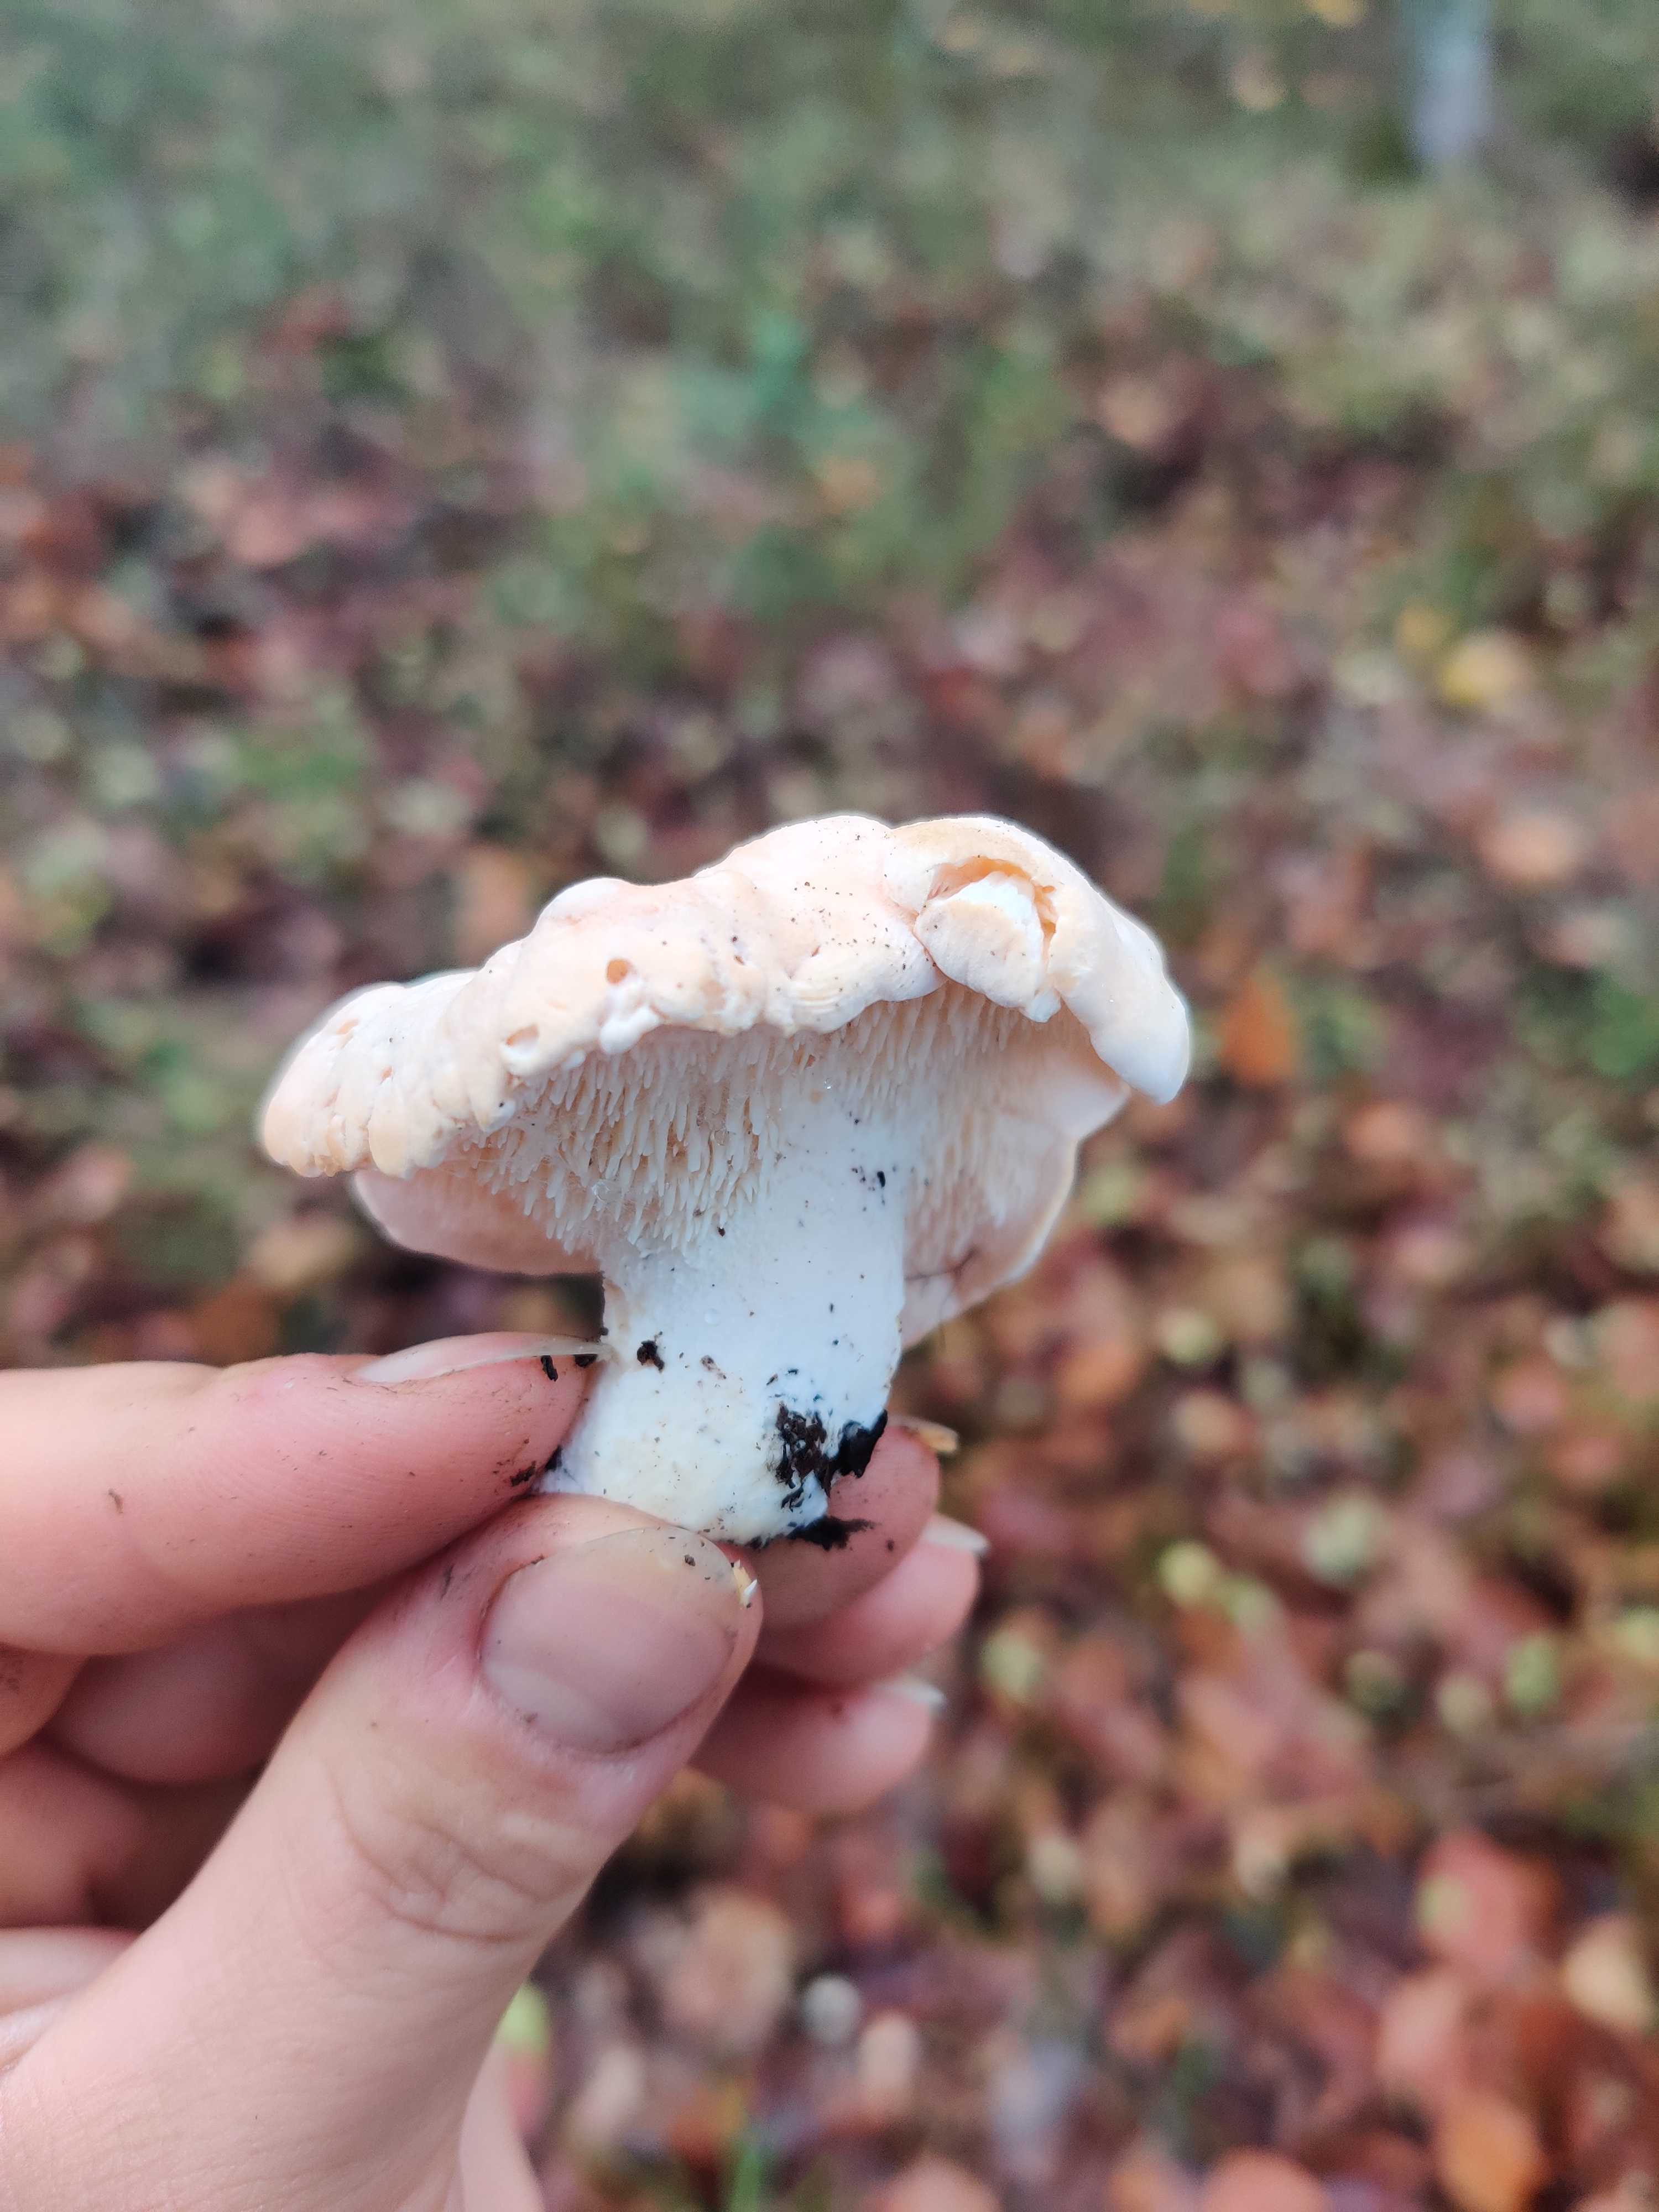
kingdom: Fungi
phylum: Basidiomycota
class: Agaricomycetes
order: Cantharellales
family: Hydnaceae
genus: Hydnum
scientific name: Hydnum repandum
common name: almindelig pigsvamp
